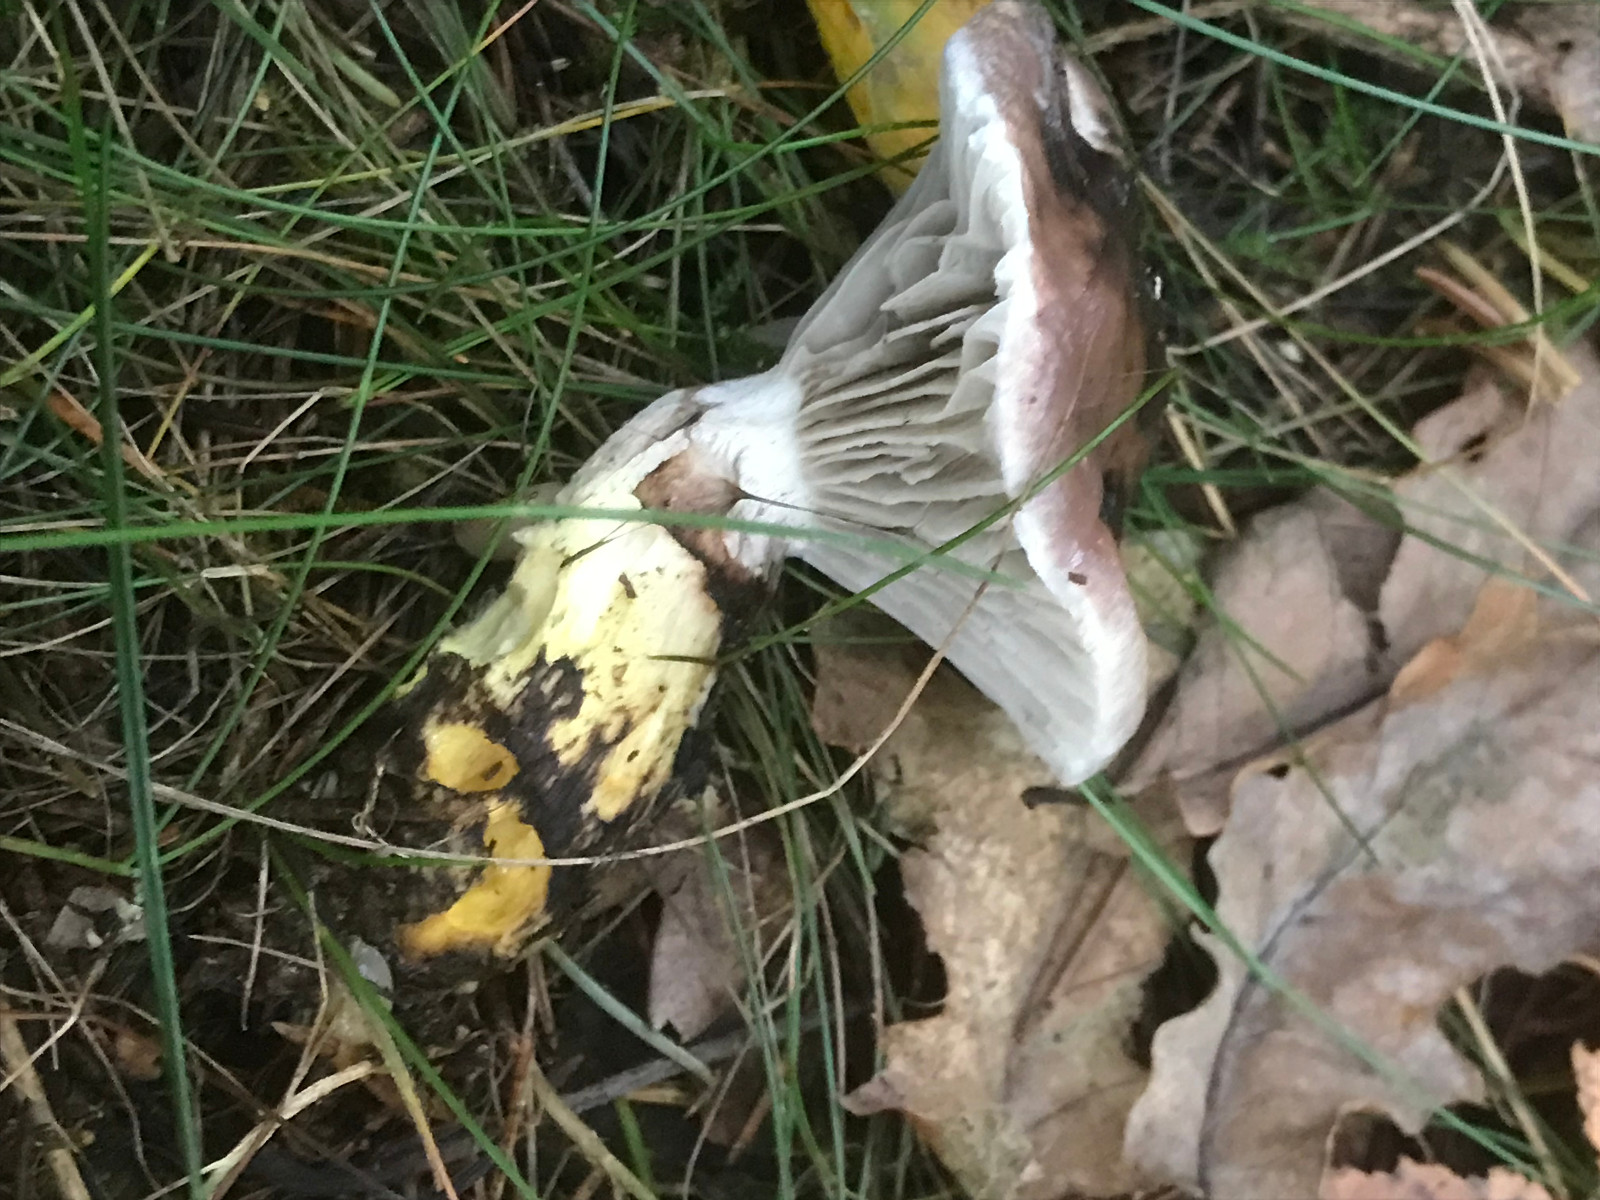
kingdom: Fungi
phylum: Basidiomycota
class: Agaricomycetes
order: Boletales
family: Gomphidiaceae
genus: Gomphidius
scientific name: Gomphidius glutinosus
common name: grå slimslør
